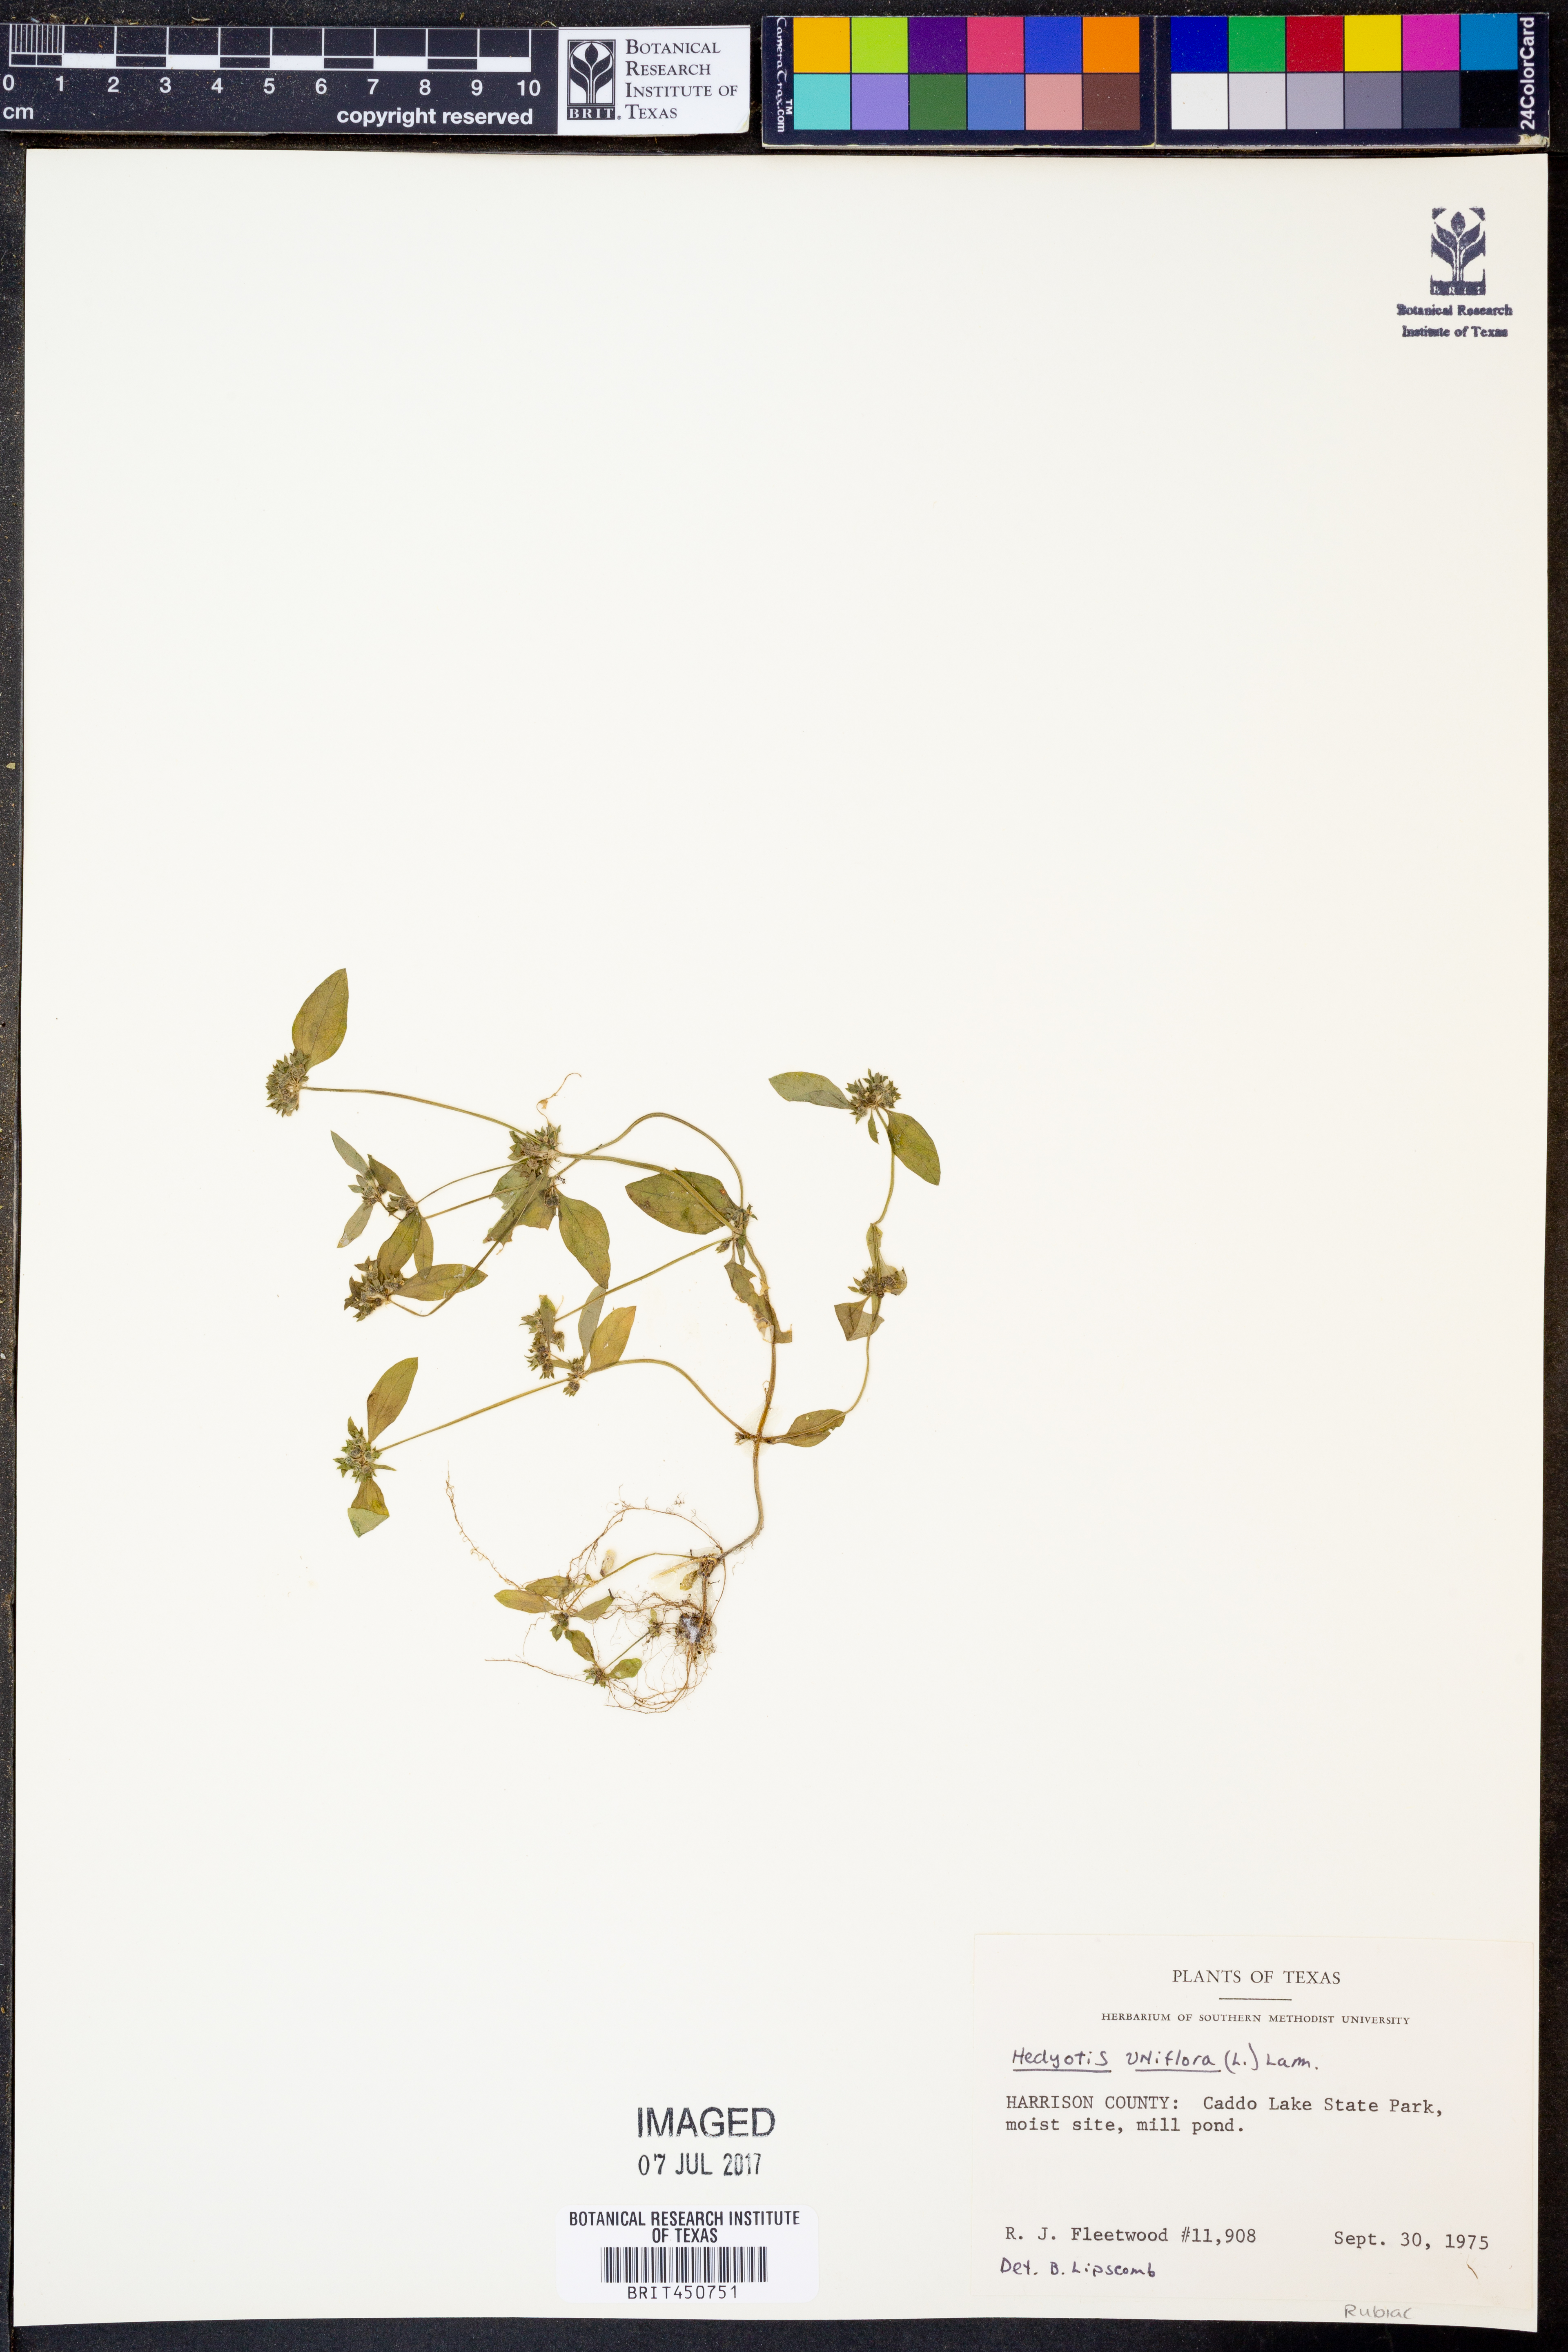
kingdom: Plantae
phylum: Tracheophyta
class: Magnoliopsida
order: Gentianales
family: Rubiaceae
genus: Edrastima
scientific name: Edrastima uniflora
